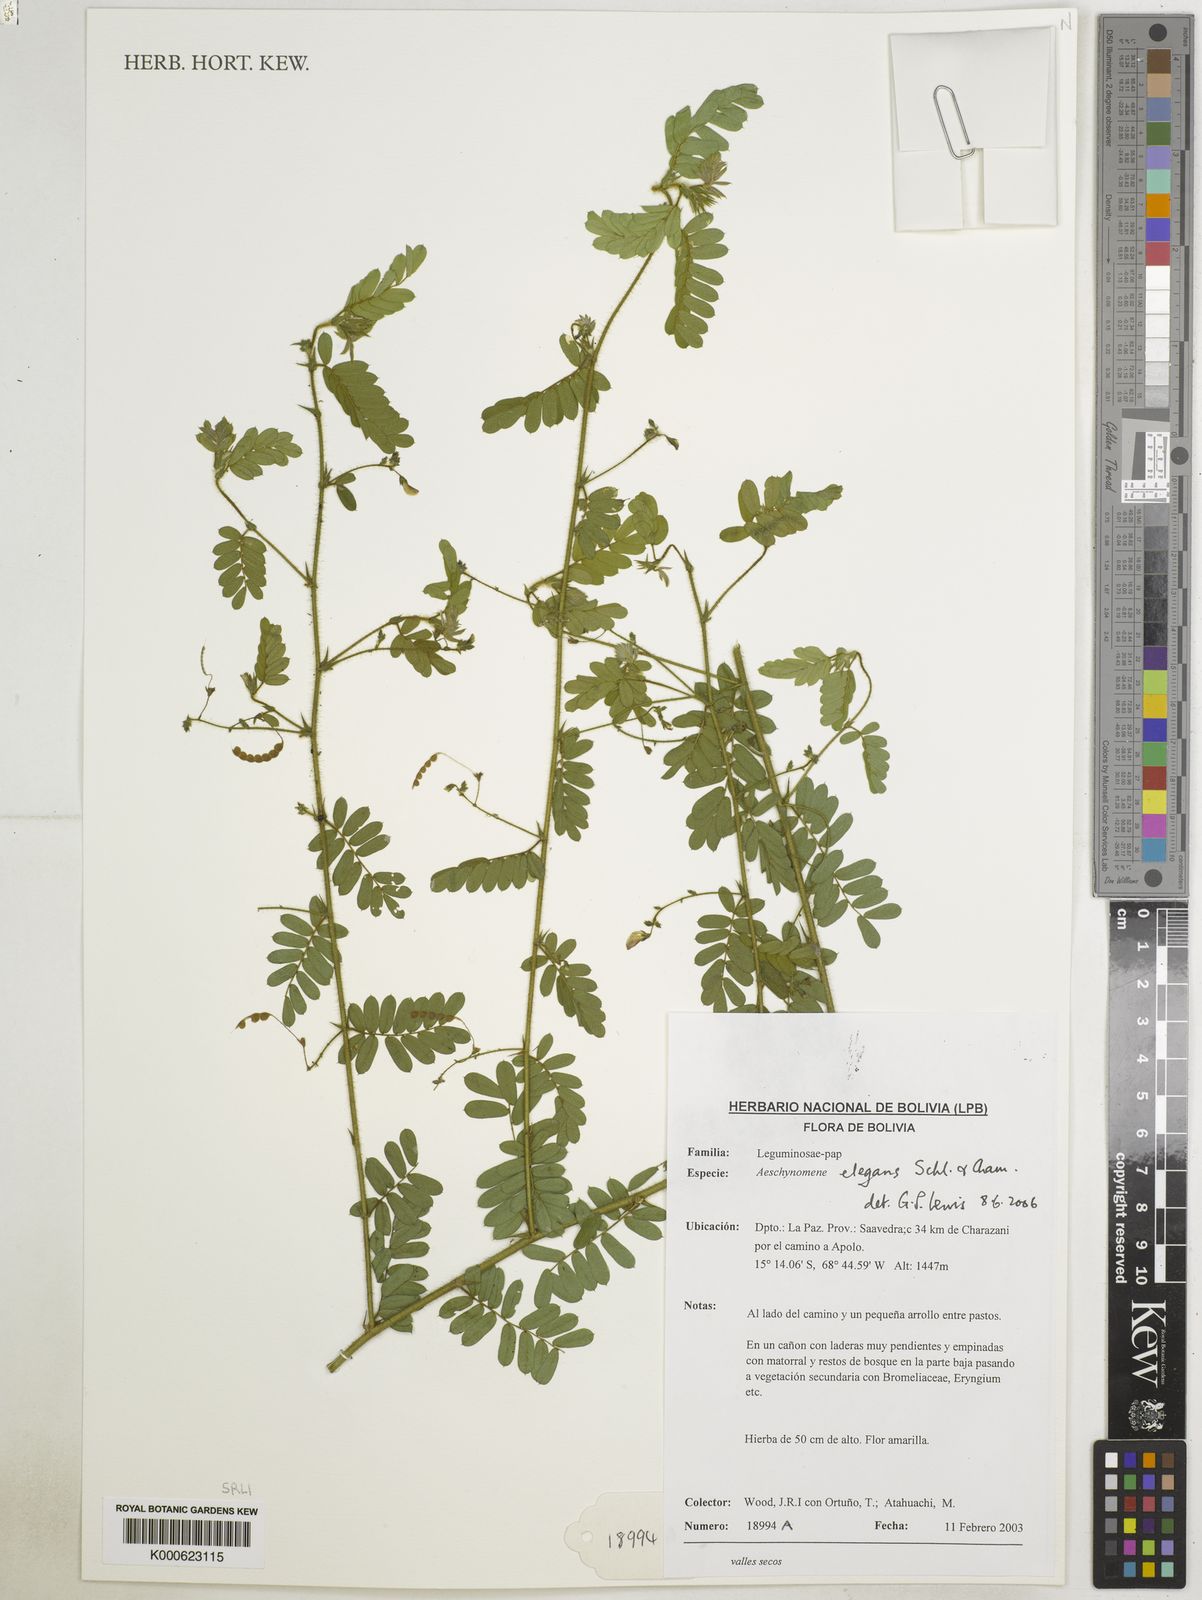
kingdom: Plantae
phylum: Tracheophyta
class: Magnoliopsida
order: Fabales
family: Fabaceae
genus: Ctenodon
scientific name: Ctenodon elegans
